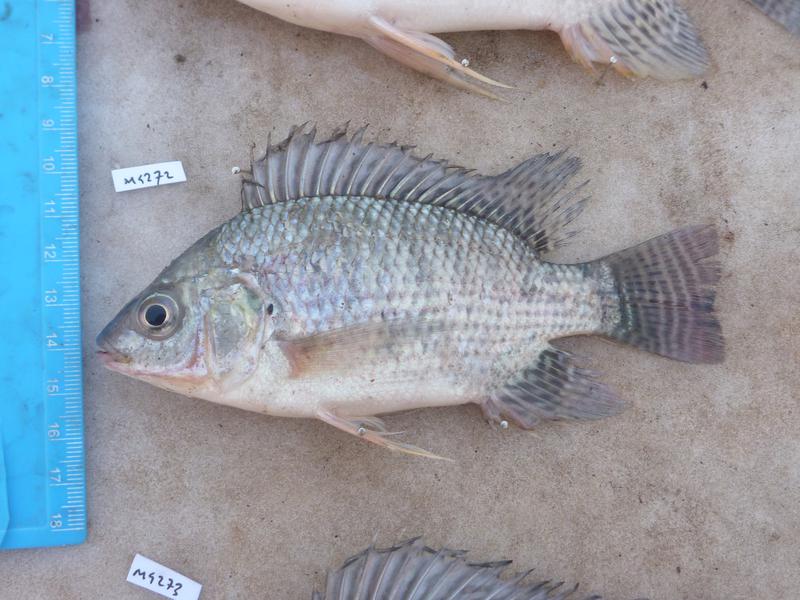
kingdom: Animalia
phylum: Chordata
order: Perciformes
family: Cichlidae
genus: Oreochromis
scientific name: Oreochromis niloticus
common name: Nile tilapia
